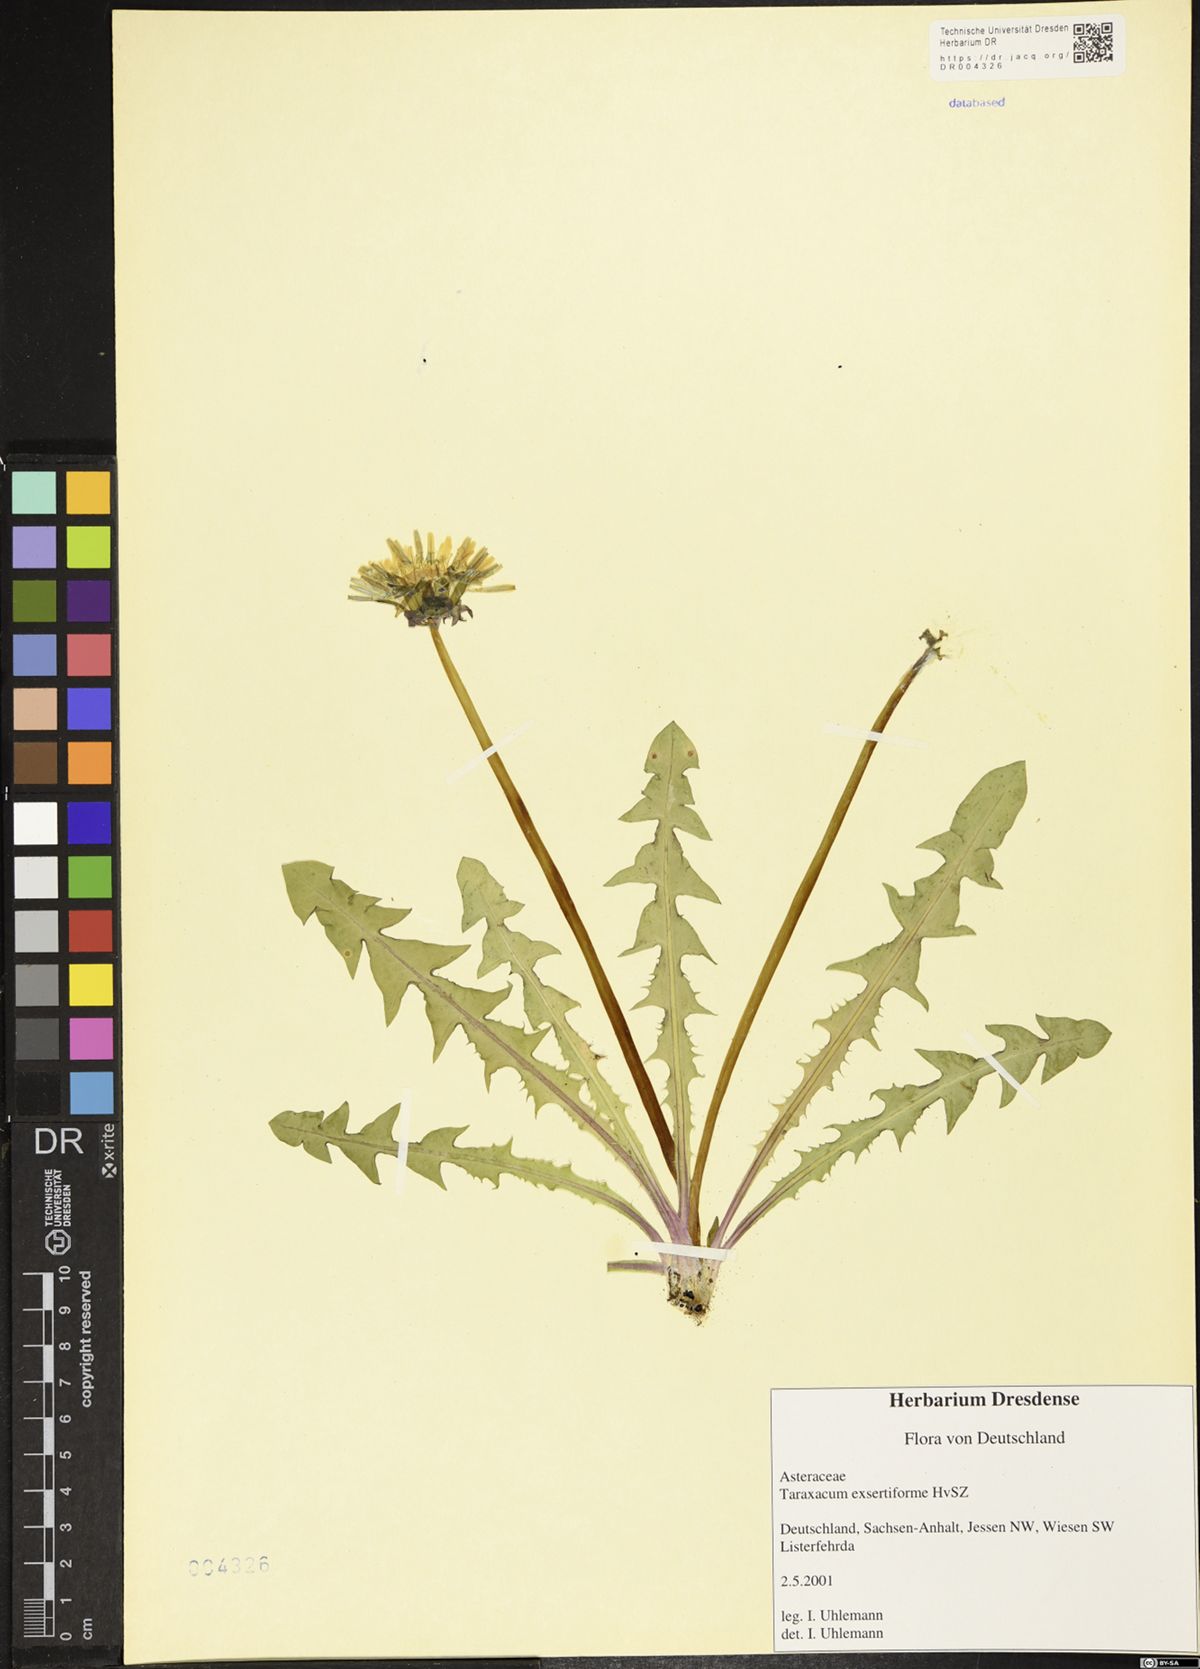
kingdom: Plantae
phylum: Tracheophyta
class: Magnoliopsida
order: Asterales
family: Asteraceae
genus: Taraxacum
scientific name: Taraxacum exsertiforme
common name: Erect-bracted dandelion
